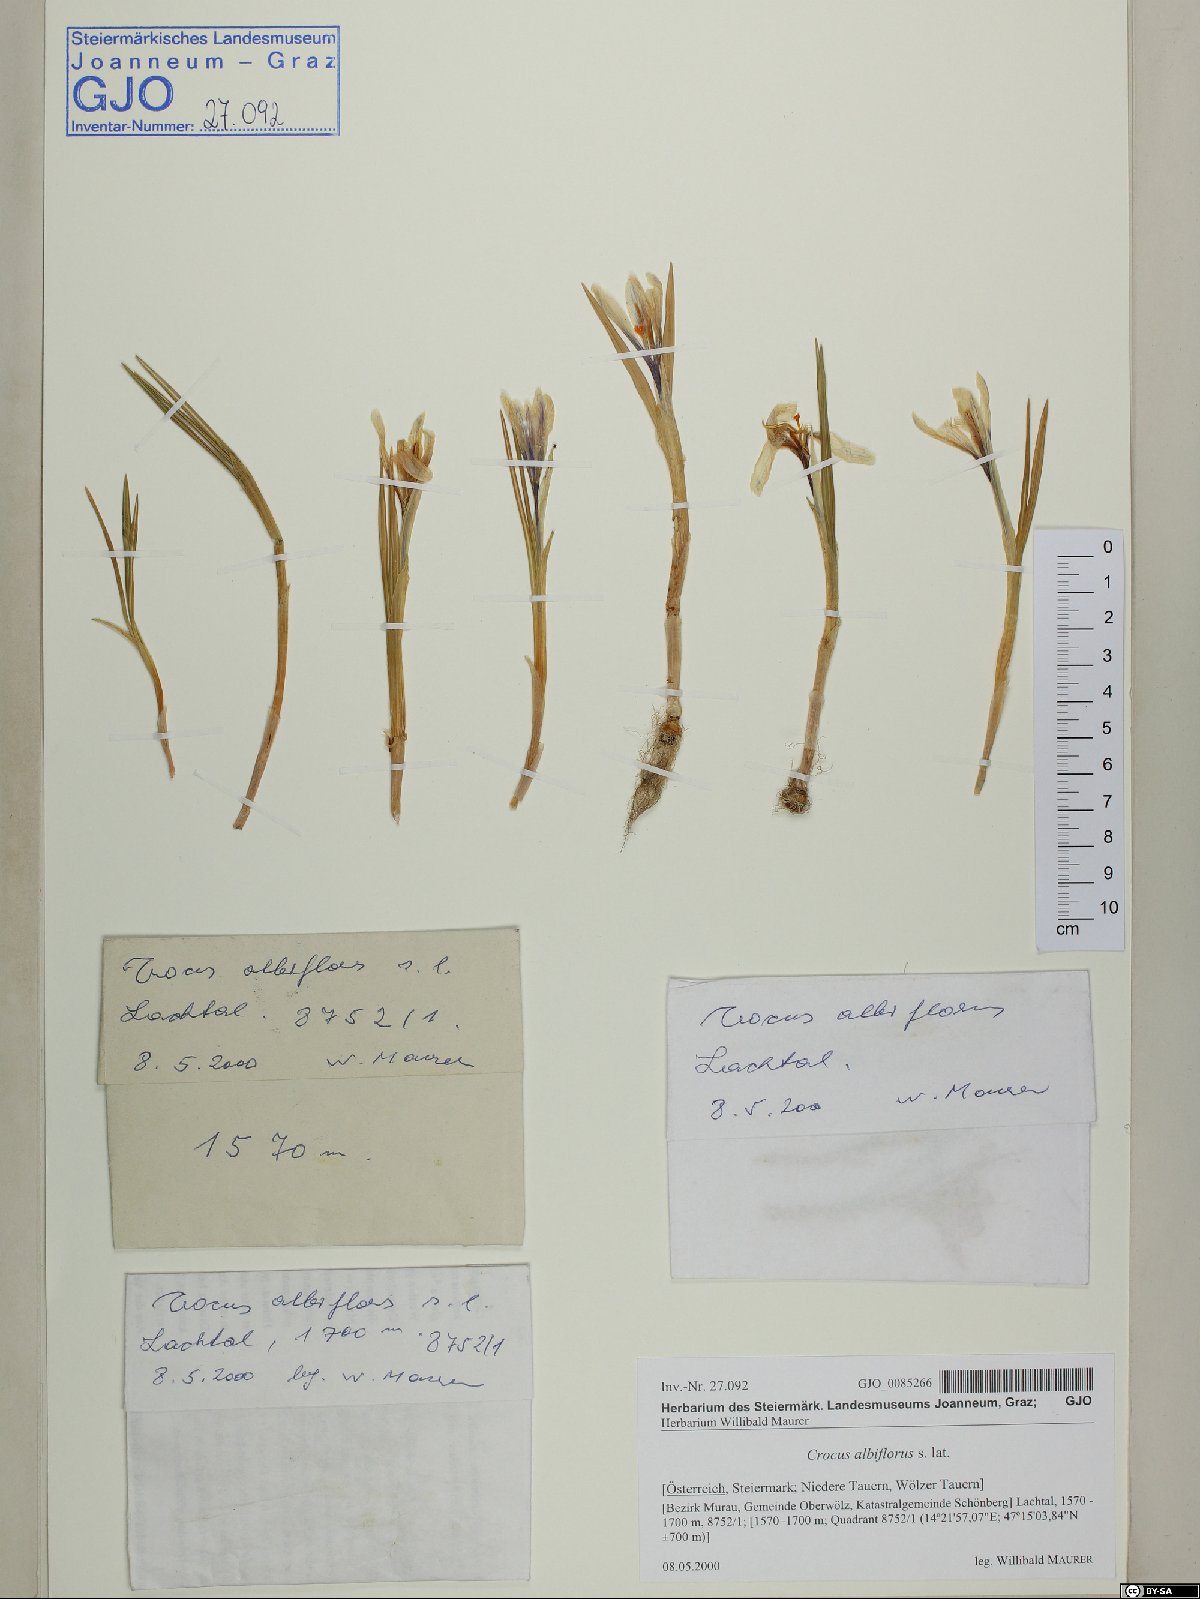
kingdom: Plantae
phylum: Tracheophyta
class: Liliopsida
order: Asparagales
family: Iridaceae
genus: Crocus
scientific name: Crocus vernus
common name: Spring crocus
